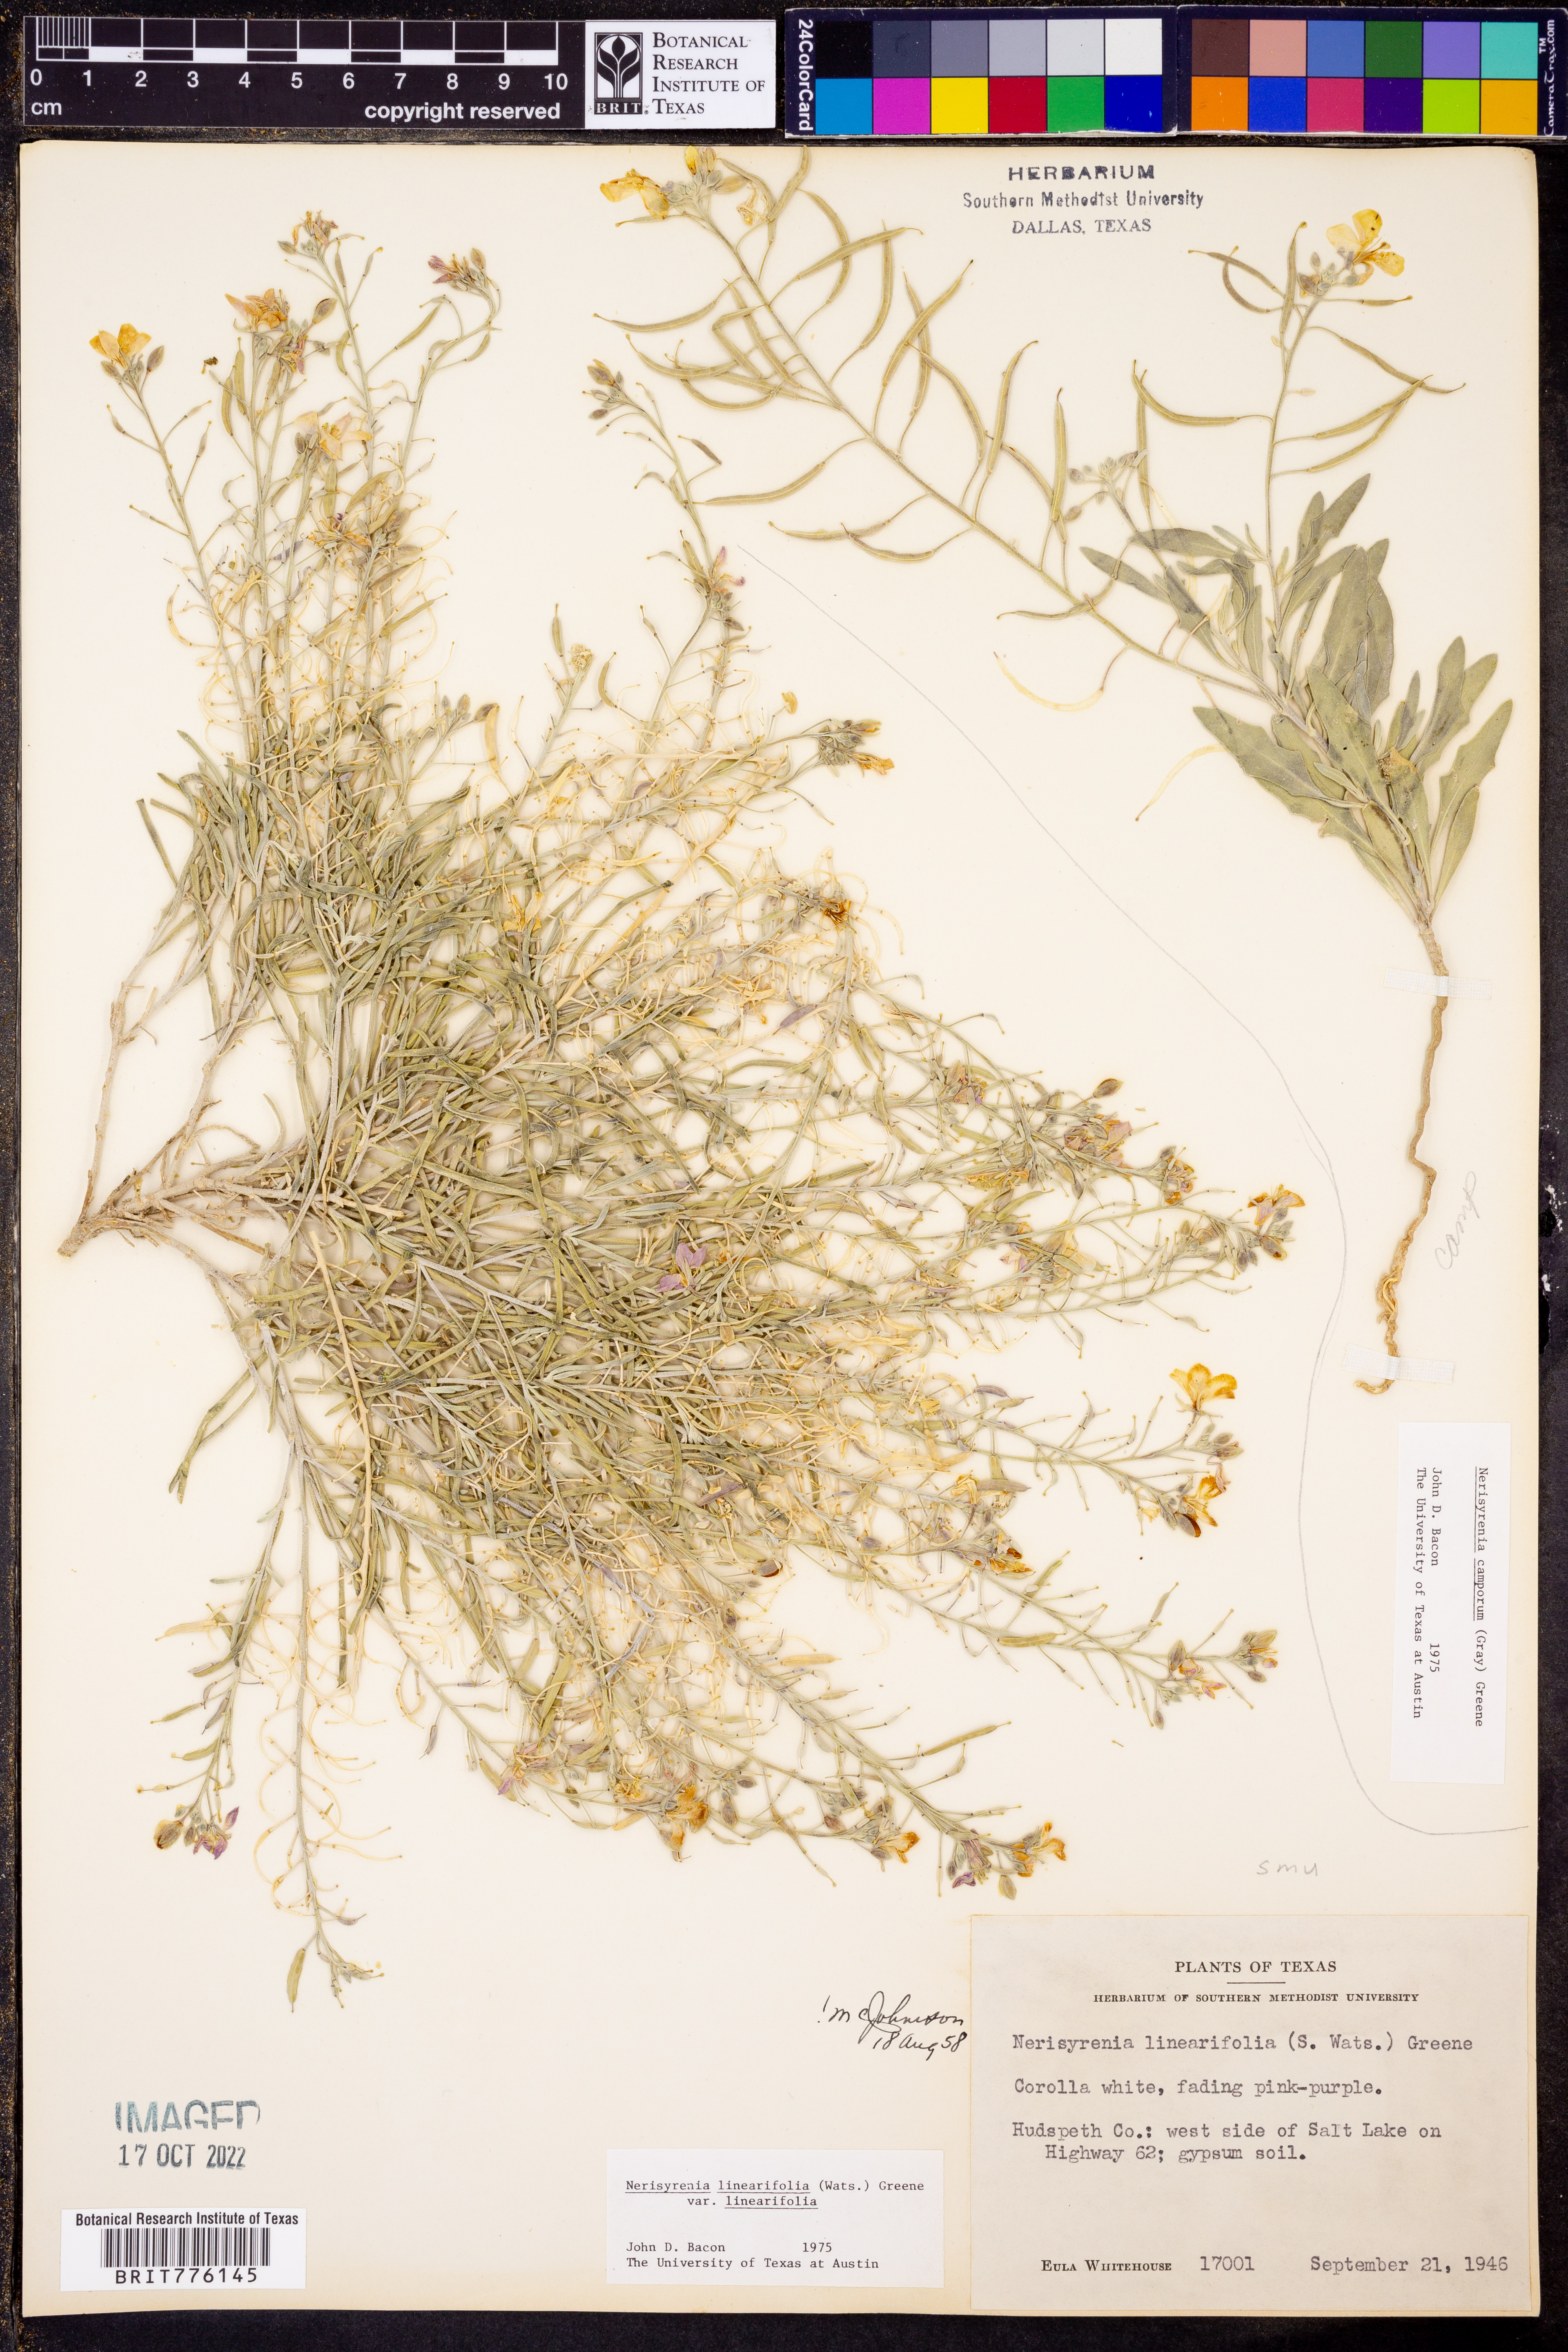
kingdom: Plantae
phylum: Tracheophyta
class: Magnoliopsida
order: Brassicales
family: Brassicaceae
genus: Nerisyrenia
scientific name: Nerisyrenia linearifolia
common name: White sands fan mustard
